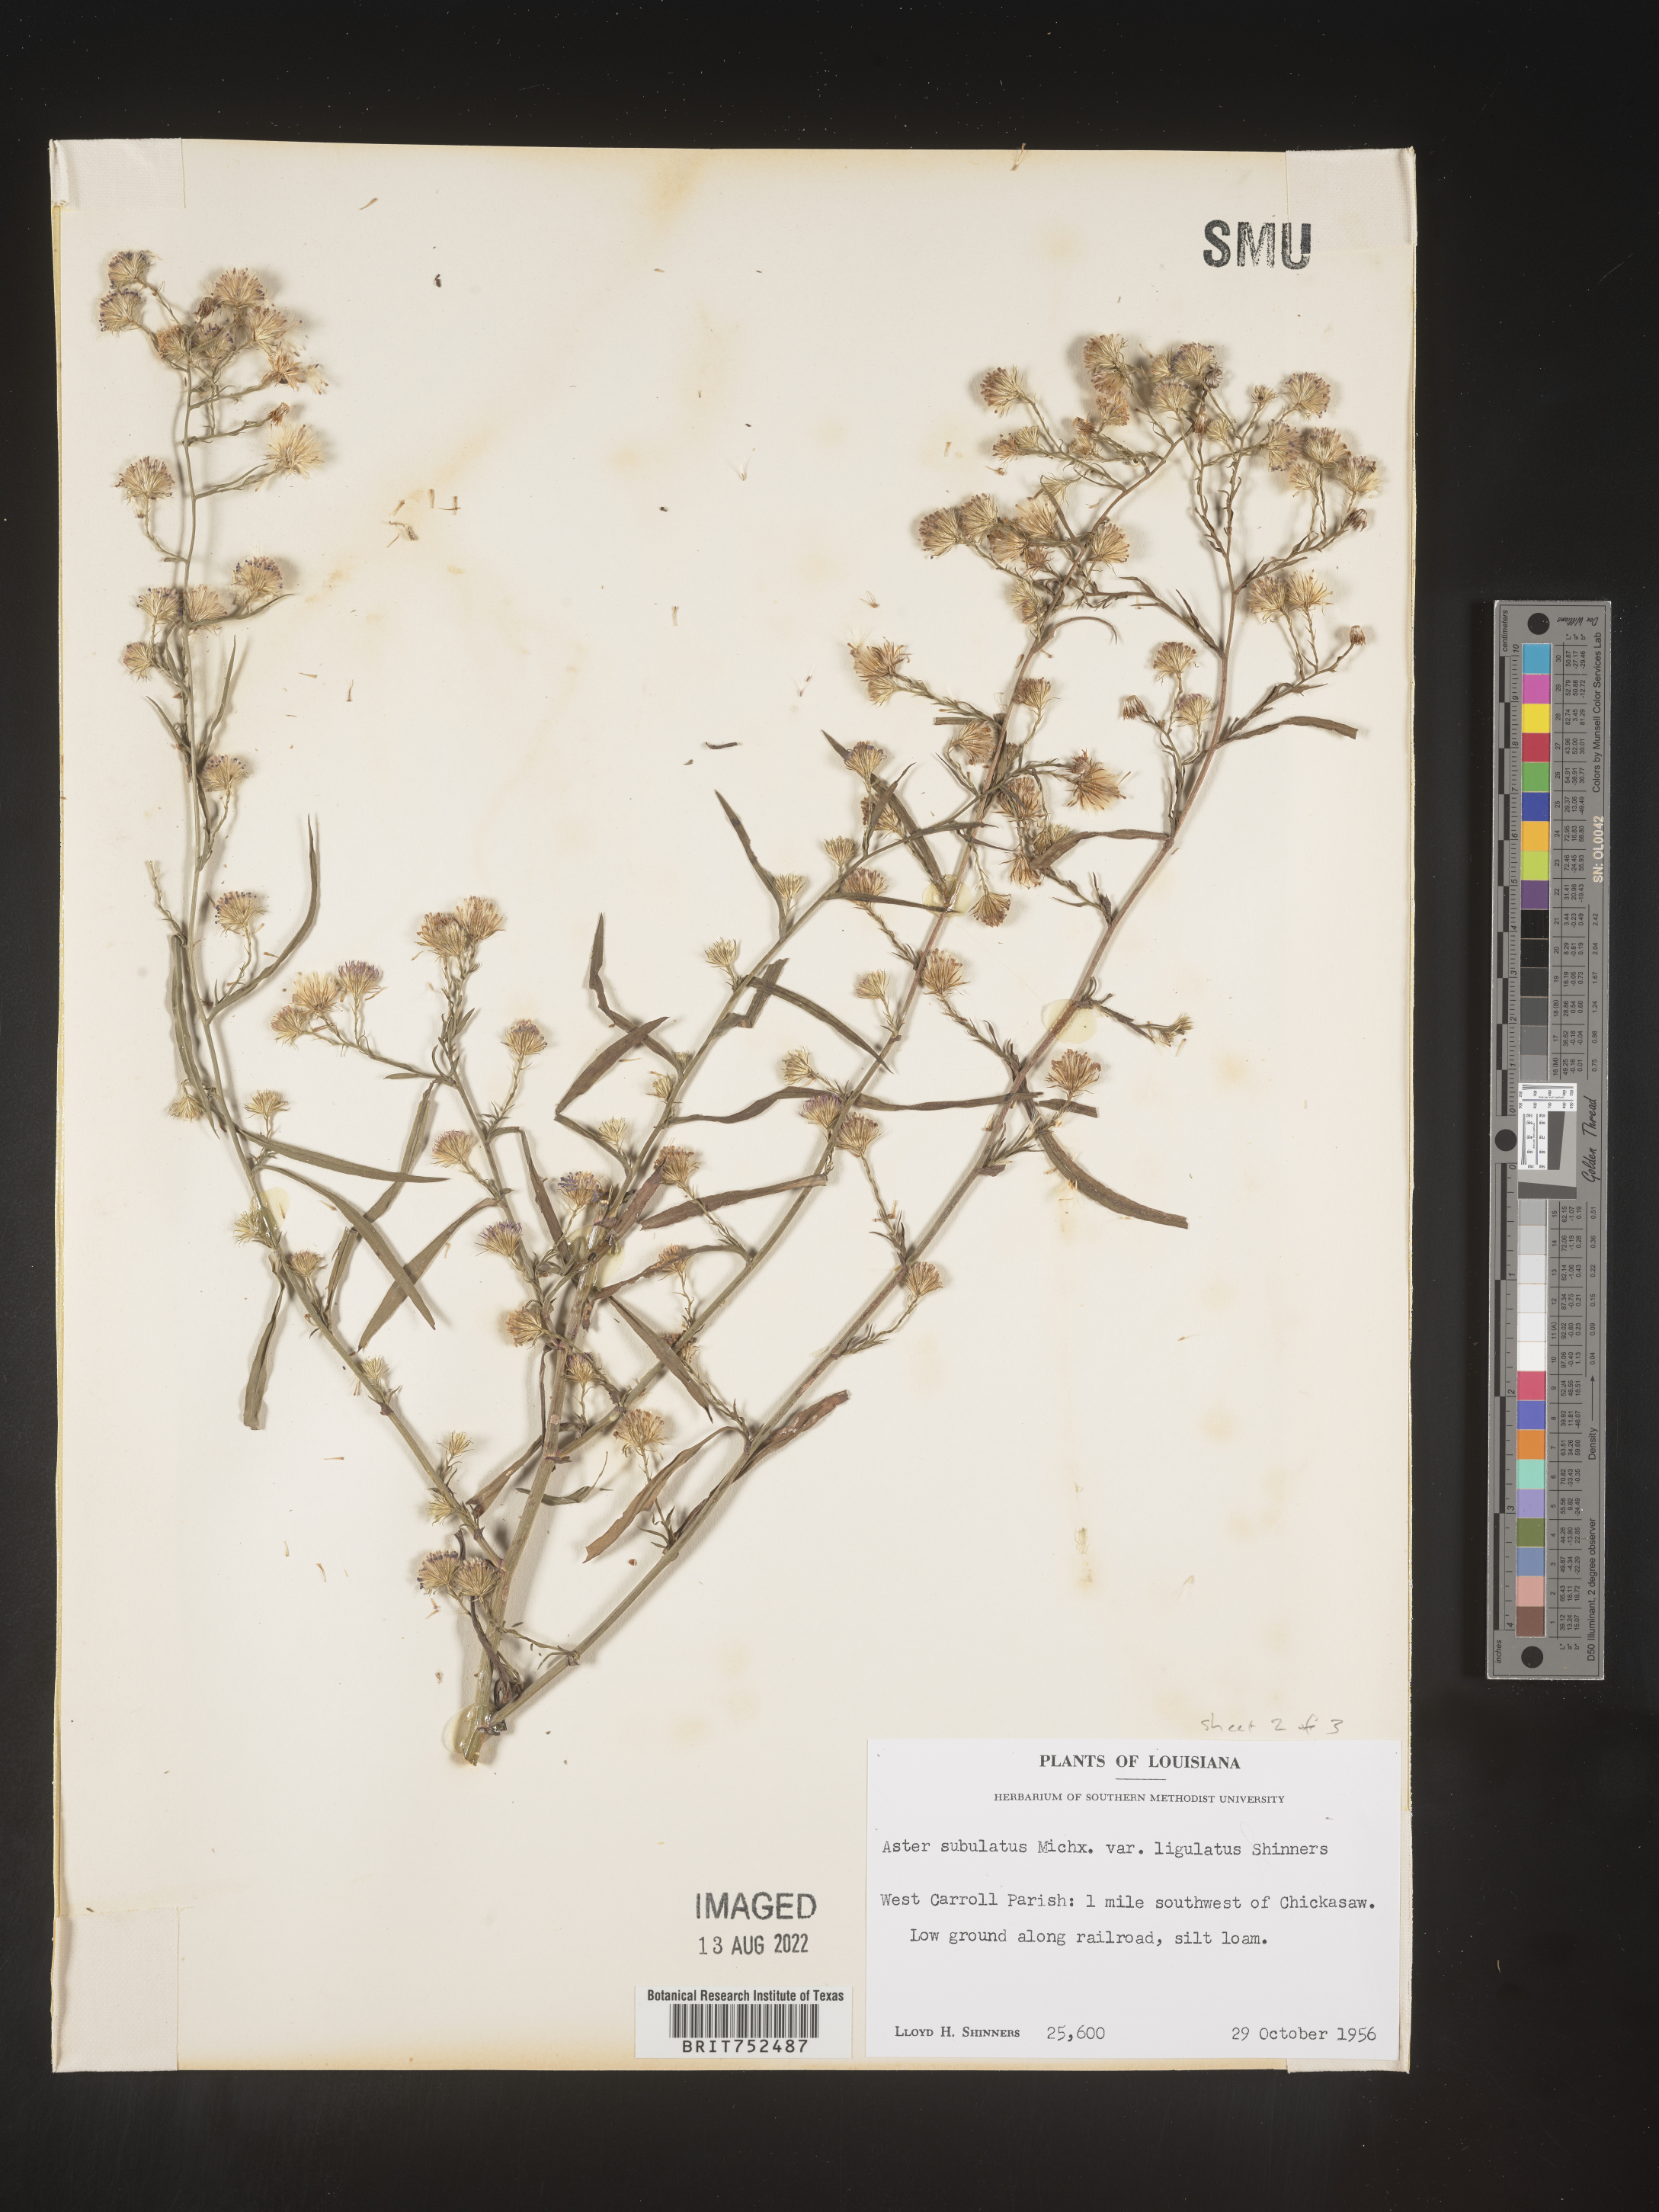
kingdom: Plantae
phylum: Tracheophyta
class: Magnoliopsida
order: Asterales
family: Asteraceae
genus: Symphyotrichum
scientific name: Symphyotrichum divaricatum
